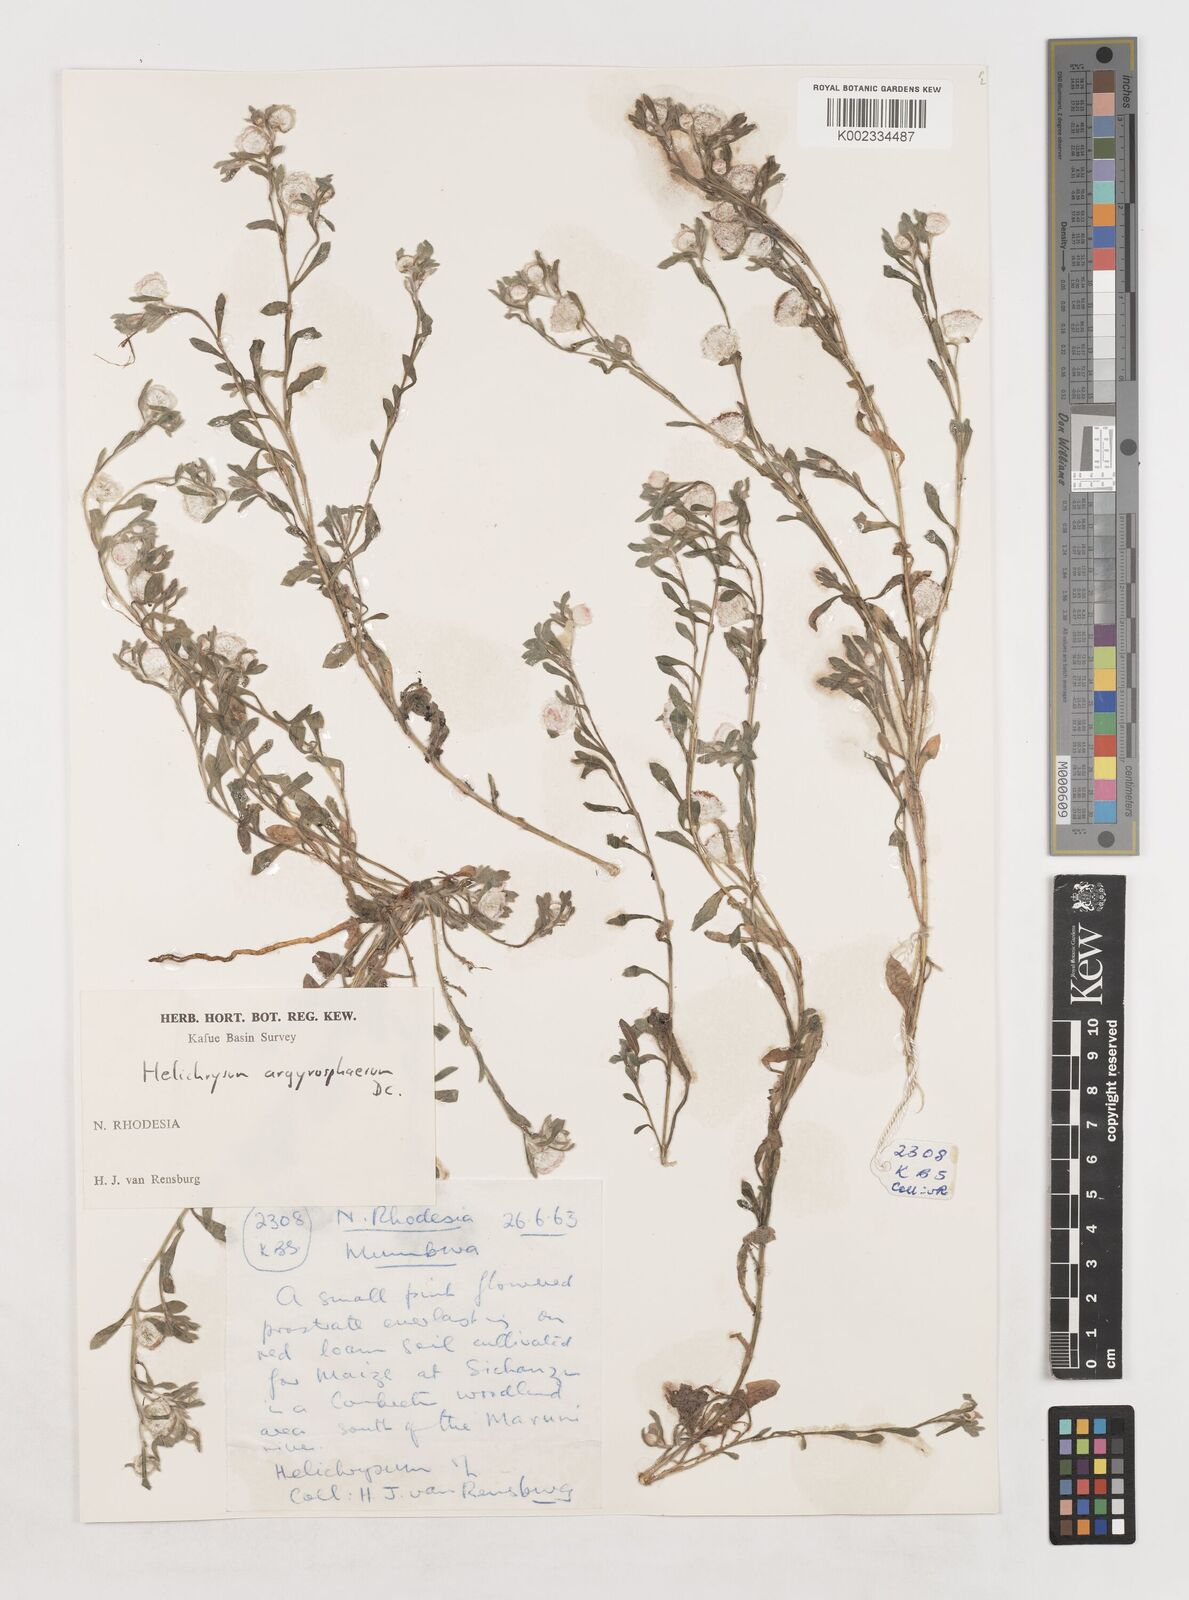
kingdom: Plantae
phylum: Tracheophyta
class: Magnoliopsida
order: Asterales
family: Asteraceae
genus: Helichrysum
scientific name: Helichrysum argyrosphaerum
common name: Wild everlasting
